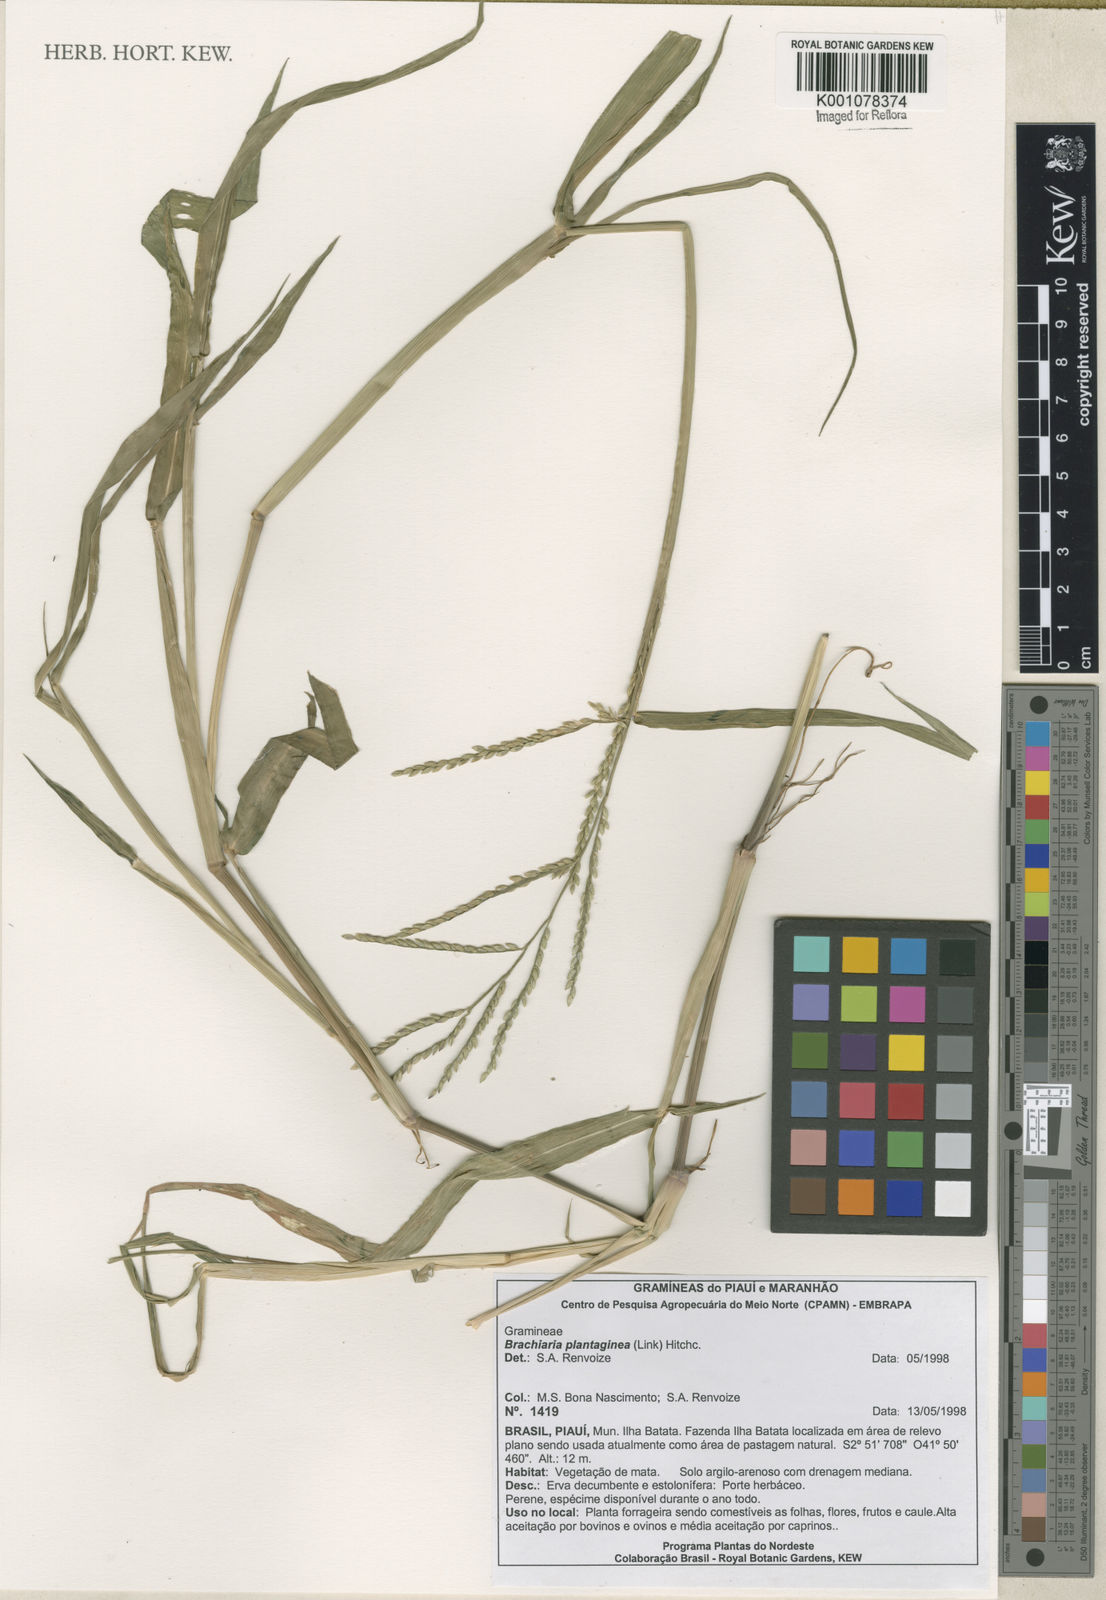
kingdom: Plantae
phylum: Tracheophyta
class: Liliopsida
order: Poales
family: Poaceae
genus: Urochloa
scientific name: Urochloa plantaginea
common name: Plantain signalgrass
